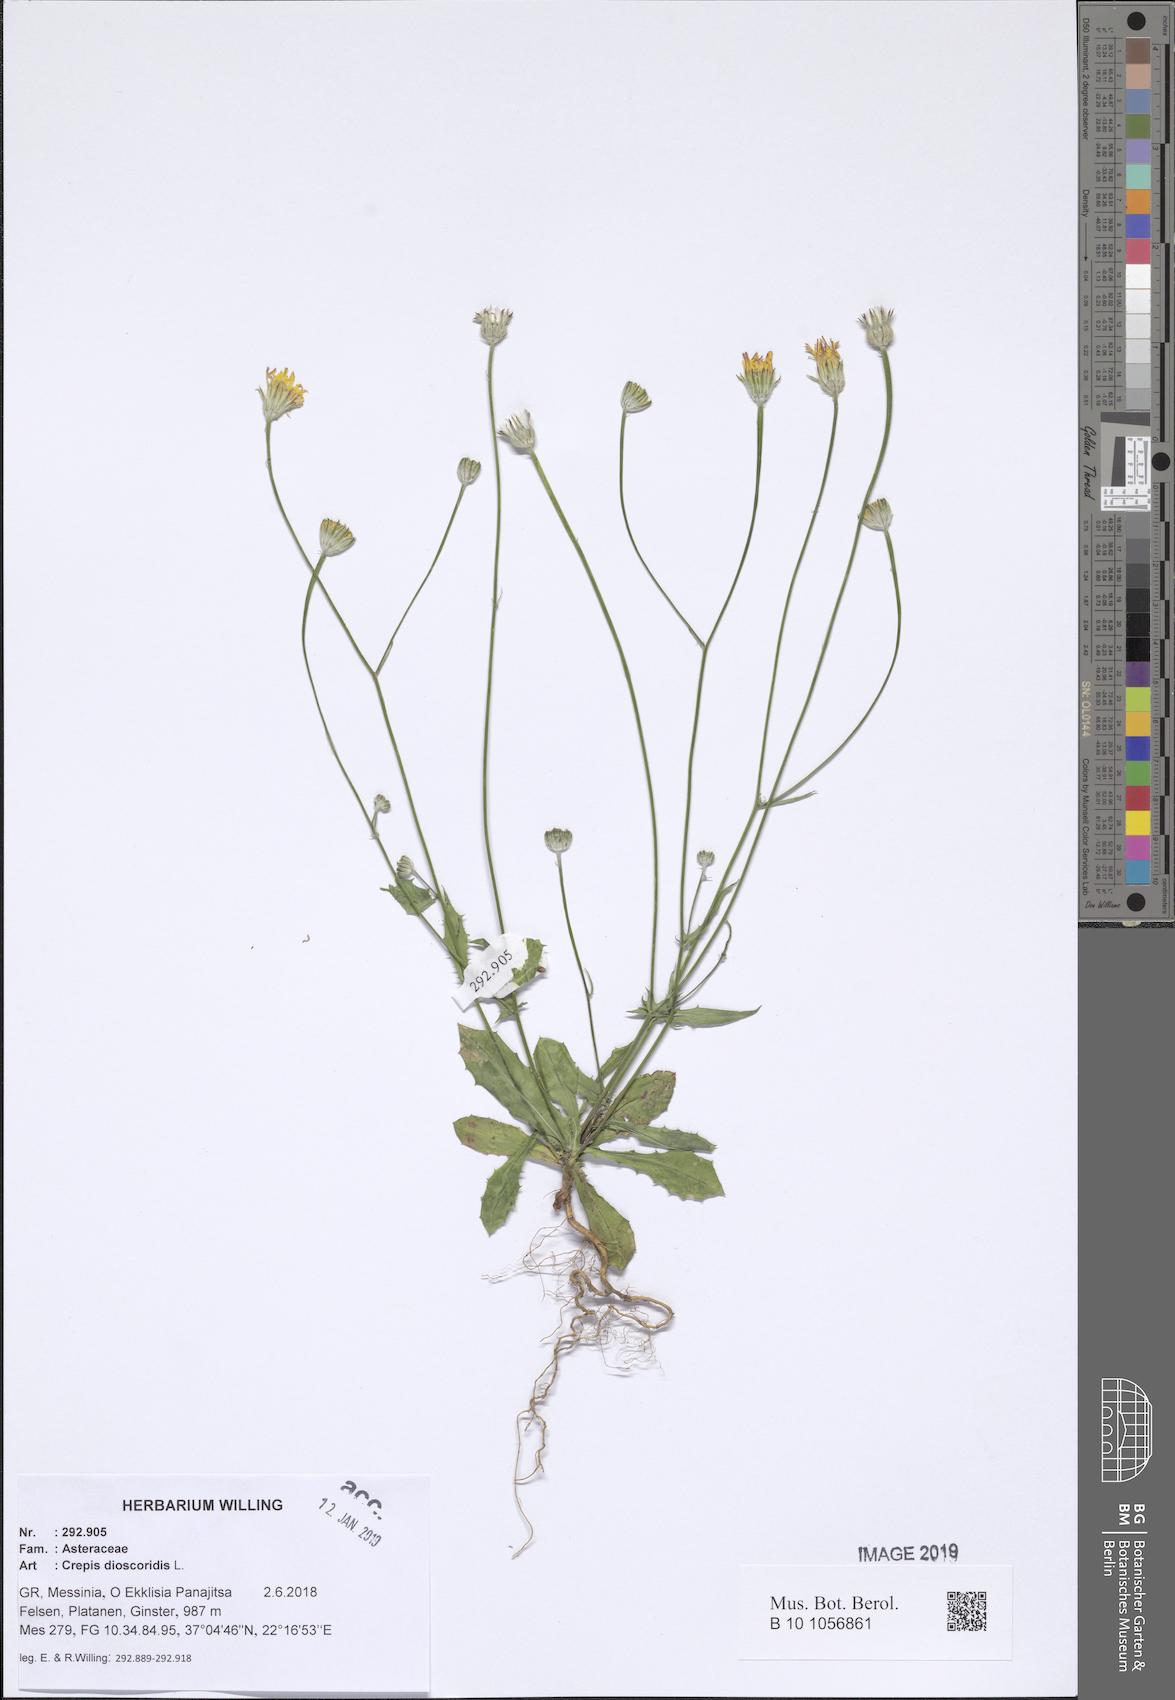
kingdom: Plantae
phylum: Tracheophyta
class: Magnoliopsida
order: Asterales
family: Asteraceae
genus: Crepis
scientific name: Crepis dioscoridis
